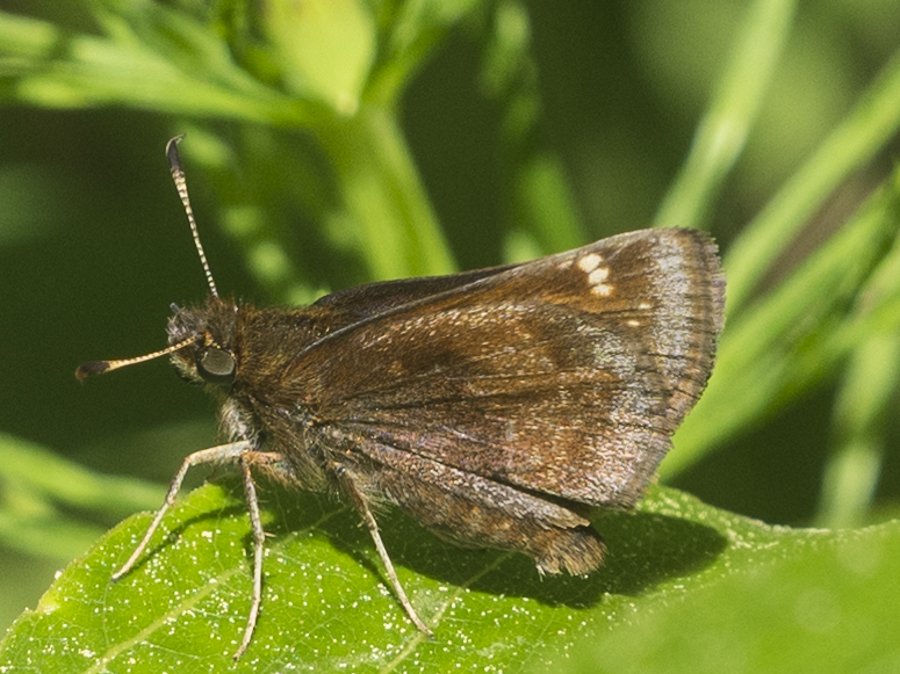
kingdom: Animalia
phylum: Arthropoda
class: Insecta
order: Lepidoptera
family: Hesperiidae
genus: Lon
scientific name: Lon hobomok
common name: Hobomok Skipper
